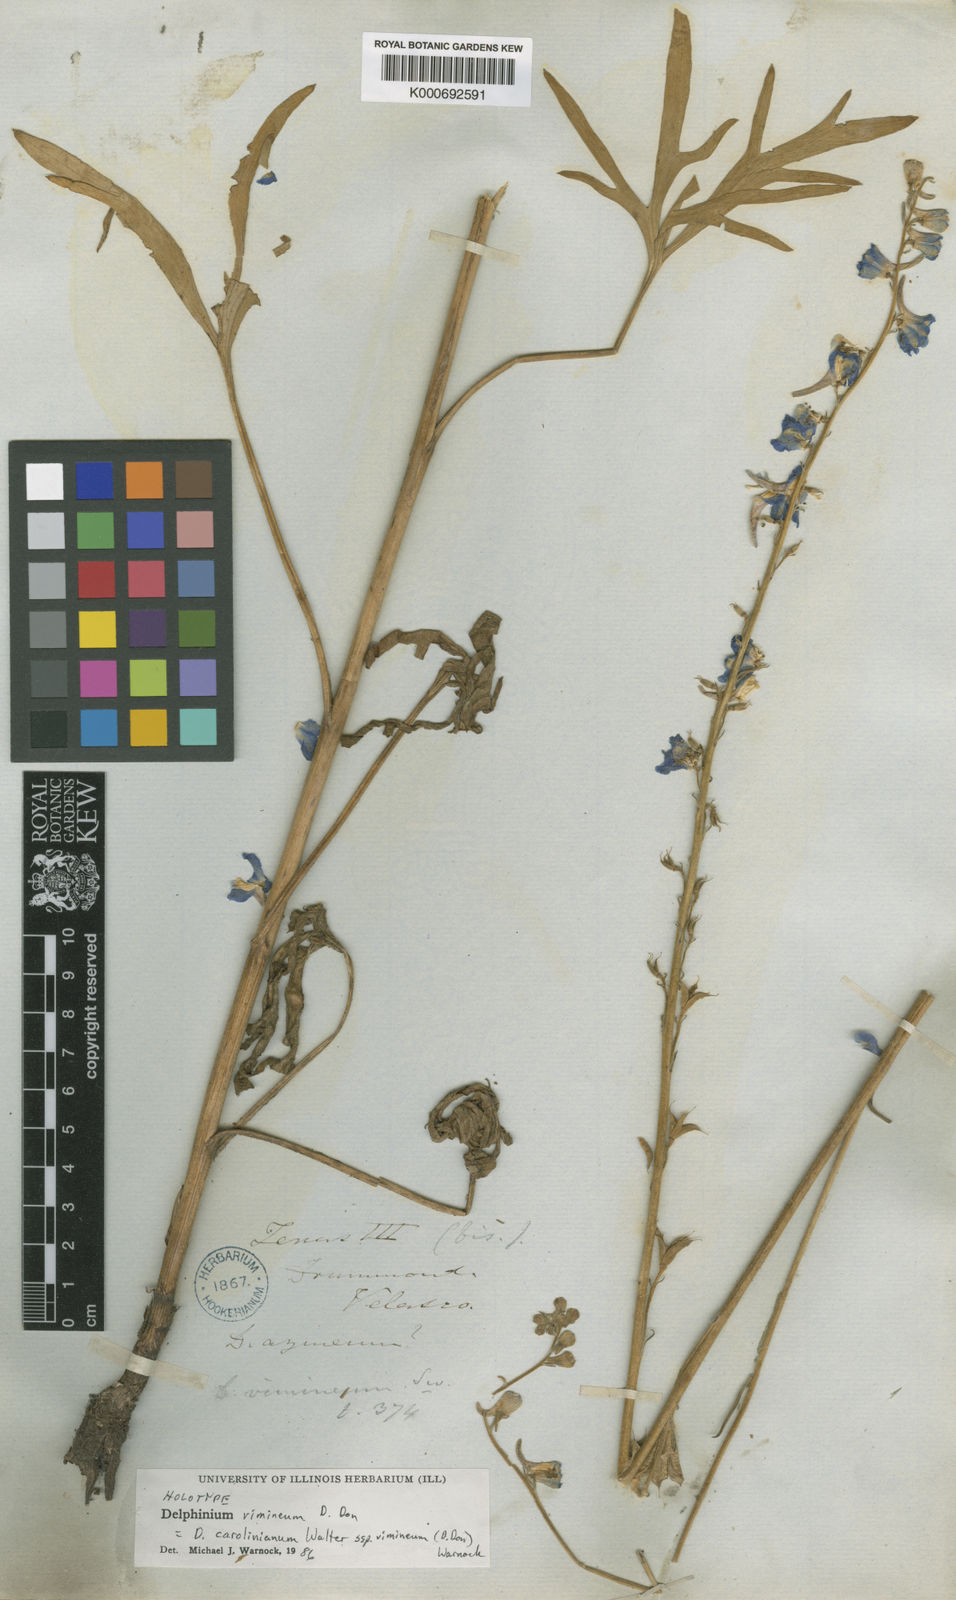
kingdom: Plantae
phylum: Tracheophyta
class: Magnoliopsida
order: Ranunculales
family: Ranunculaceae
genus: Delphinium
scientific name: Delphinium carolinianum
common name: Carolina larkspur
